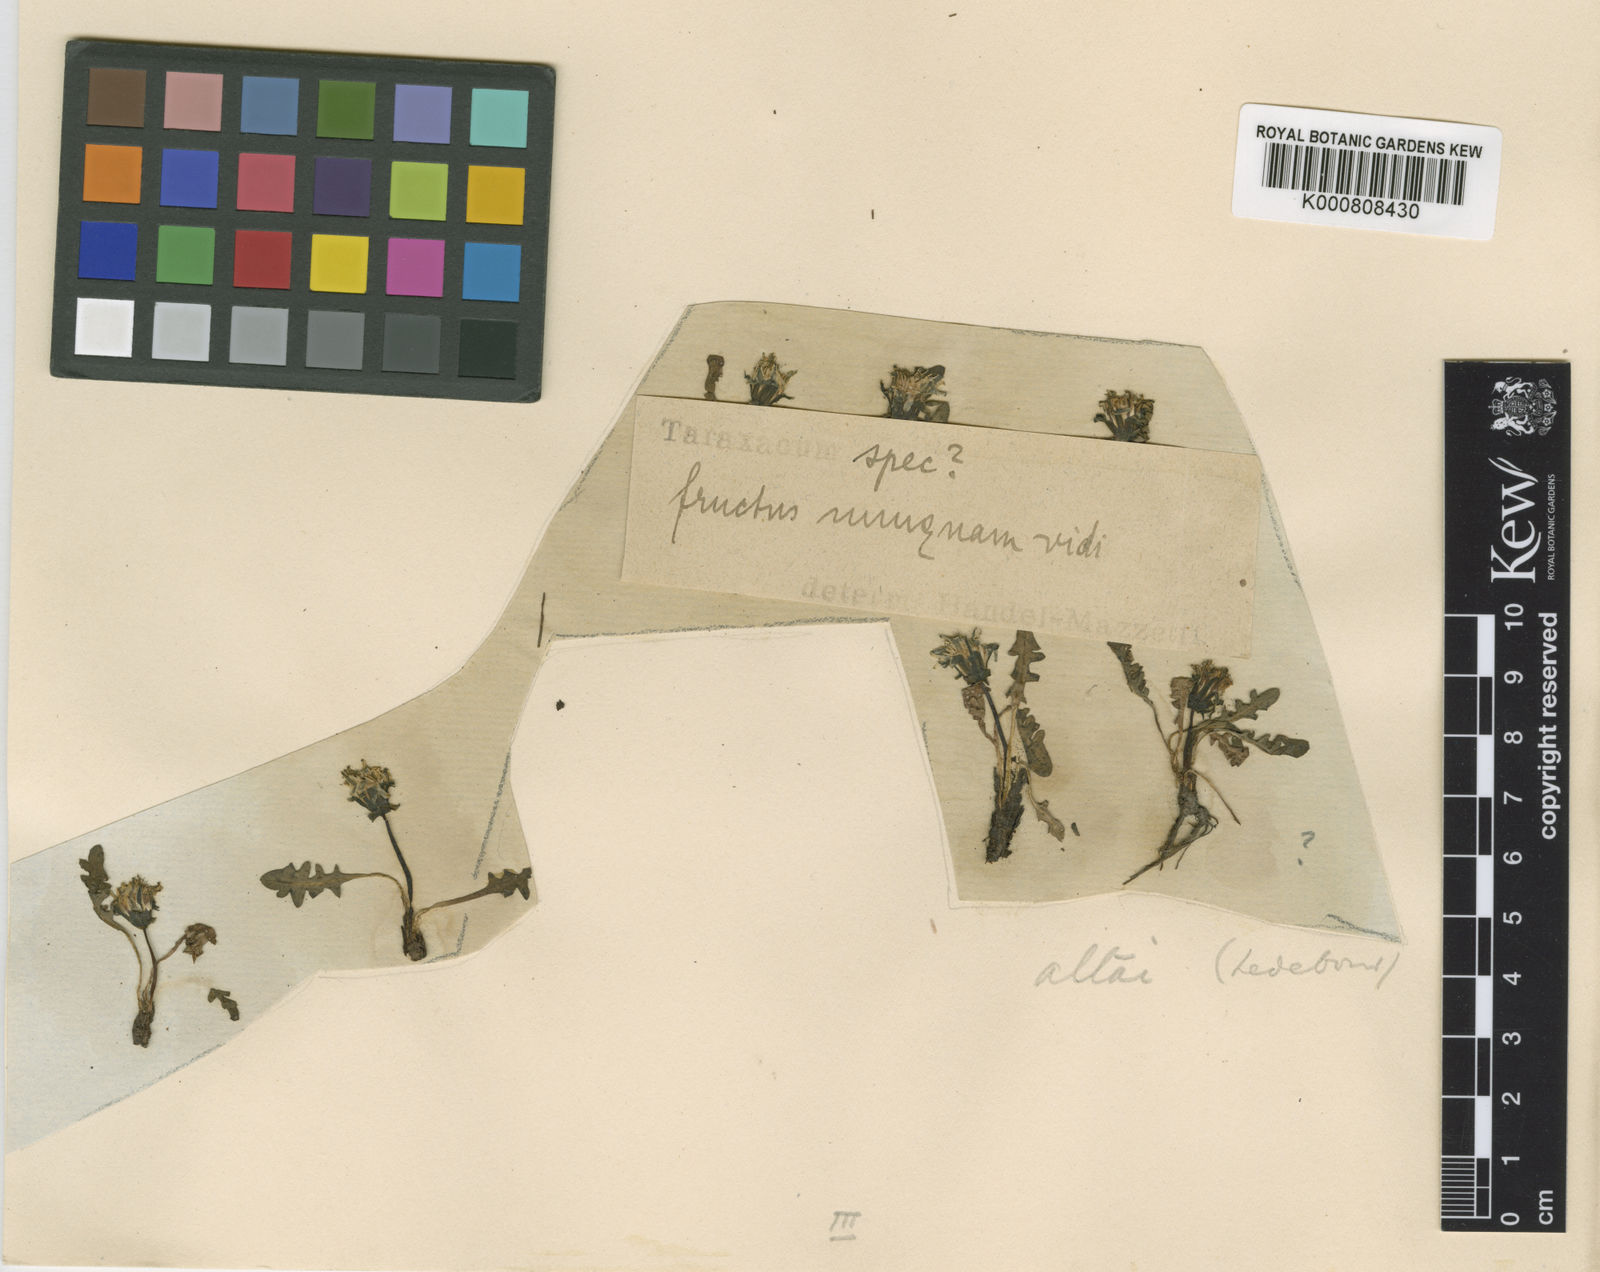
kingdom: Plantae
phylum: Tracheophyta
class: Magnoliopsida
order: Asterales
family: Asteraceae
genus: Taraxacum
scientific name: Taraxacum alaskanum
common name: Alaska dandelion
